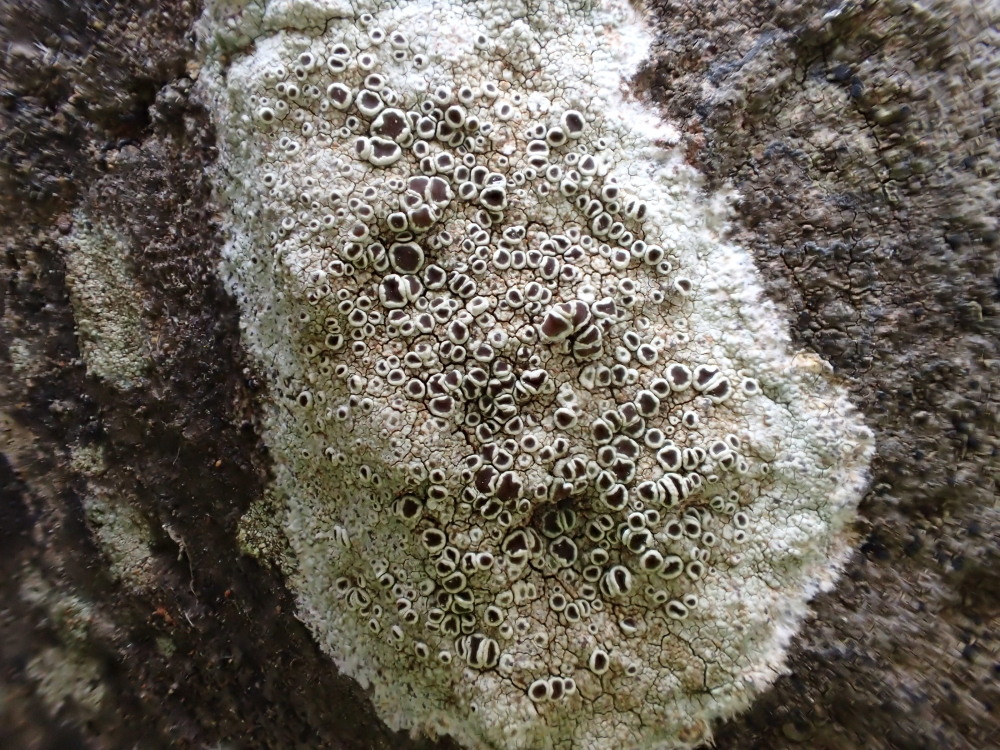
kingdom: Fungi
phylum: Ascomycota
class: Lecanoromycetes
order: Lecanorales
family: Lecanoraceae
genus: Lecanora
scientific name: Lecanora campestris
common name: mur-kantskivelav
